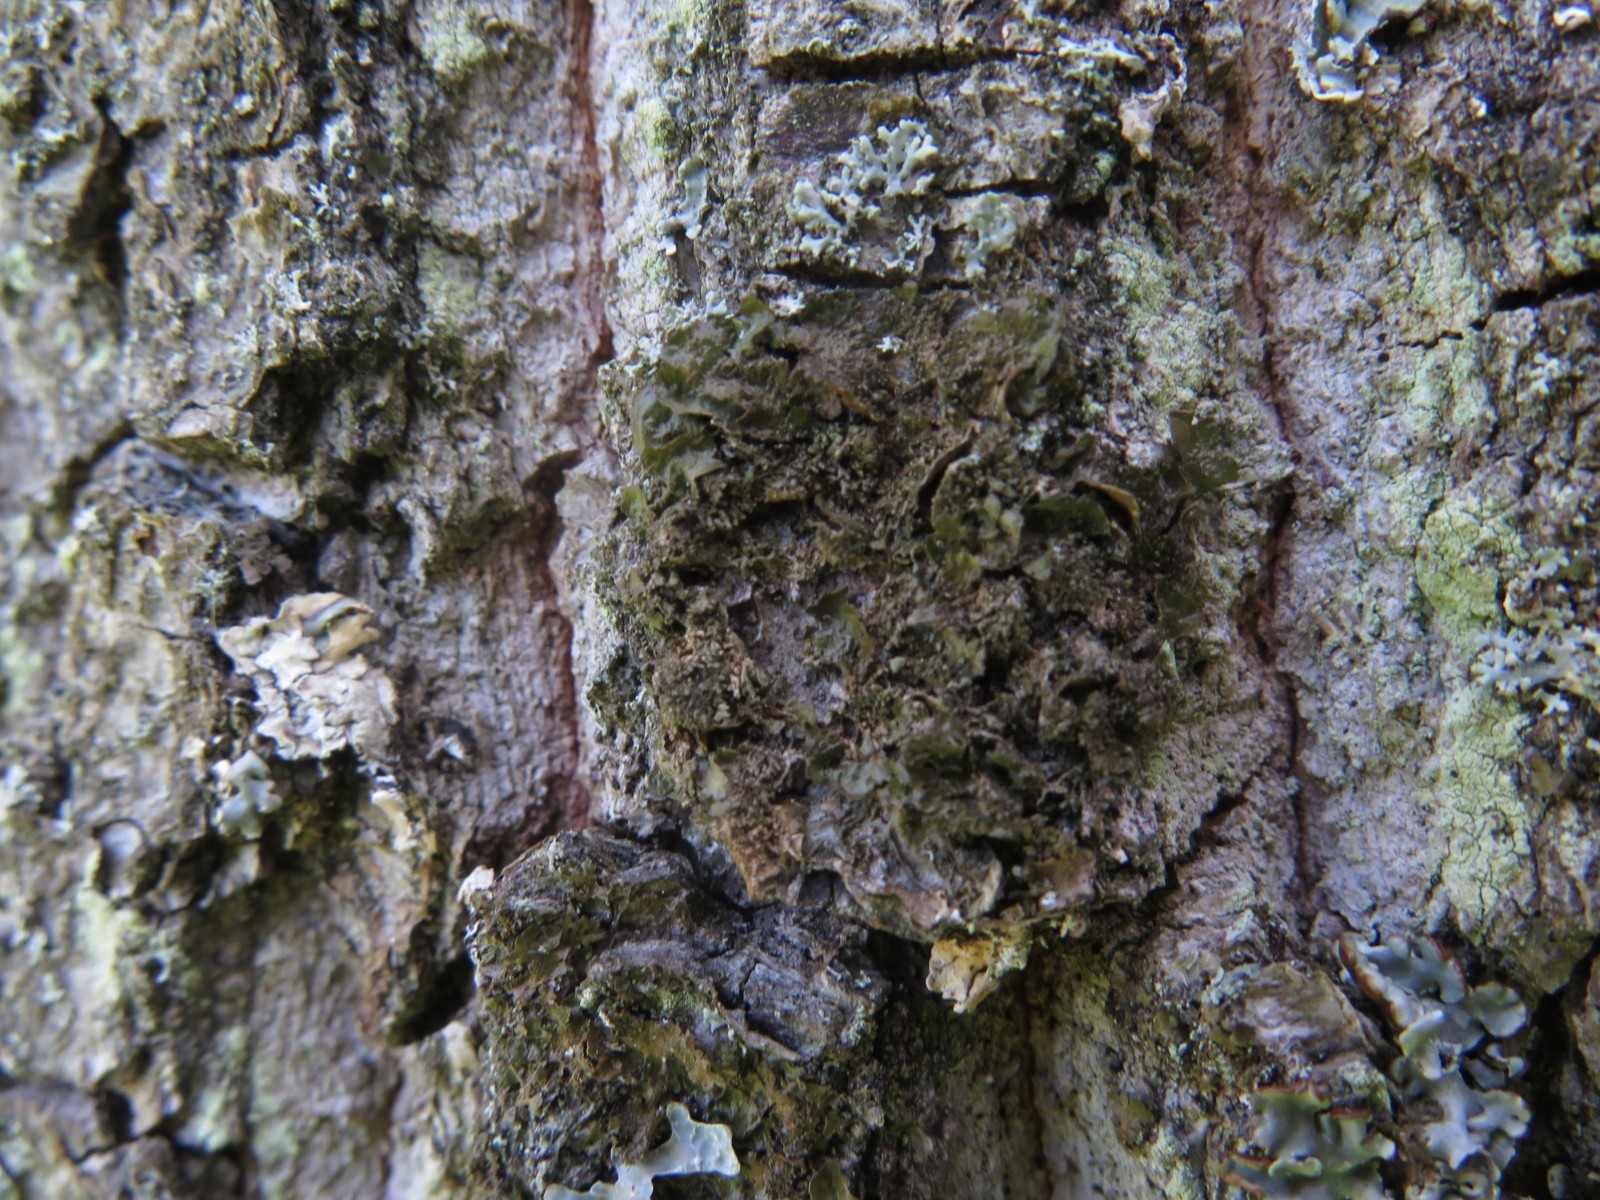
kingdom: Fungi
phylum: Ascomycota
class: Lecanoromycetes
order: Lecanorales
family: Parmeliaceae
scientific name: Parmeliaceae
